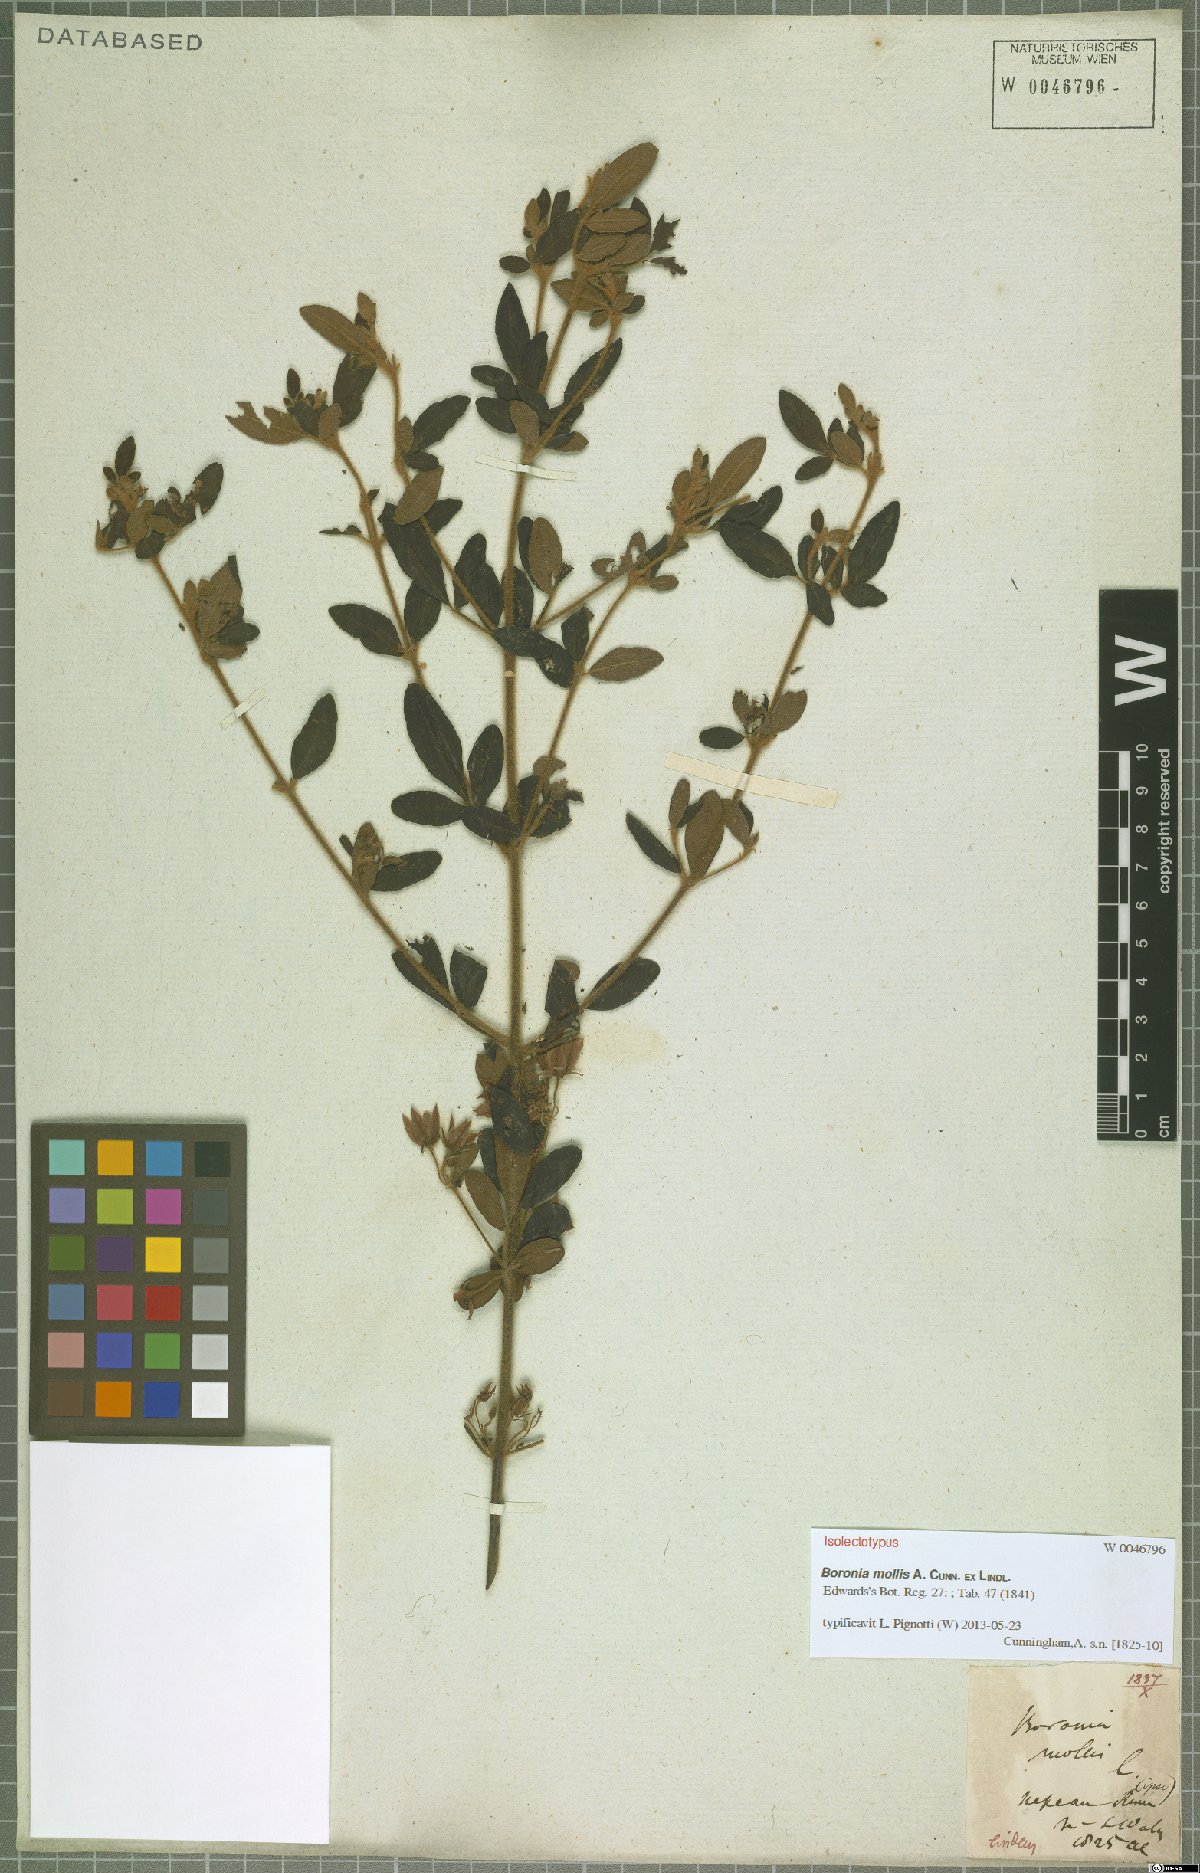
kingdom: Plantae
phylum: Tracheophyta
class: Magnoliopsida
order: Sapindales
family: Rutaceae
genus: Boronia
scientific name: Boronia mollis
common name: Soft boronia
